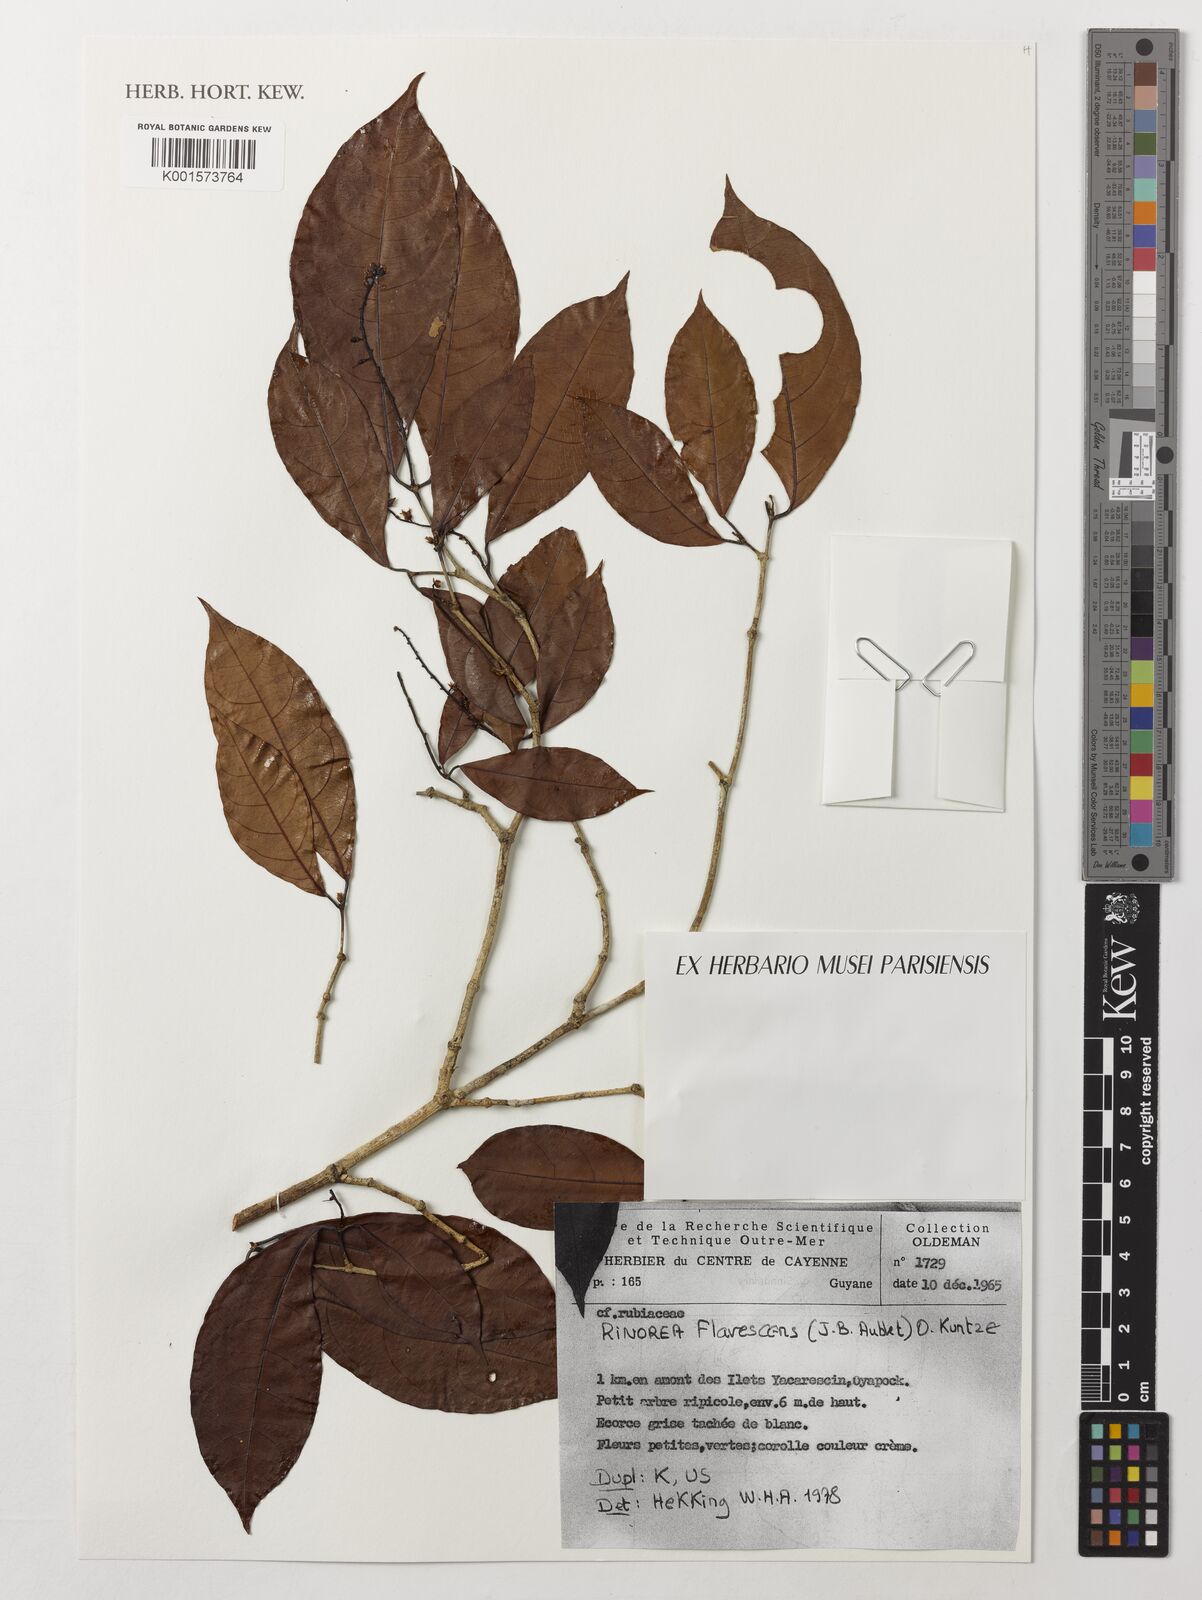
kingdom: Plantae
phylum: Tracheophyta
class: Magnoliopsida
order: Malpighiales
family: Violaceae
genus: Rinorea
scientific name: Rinorea flavescens
